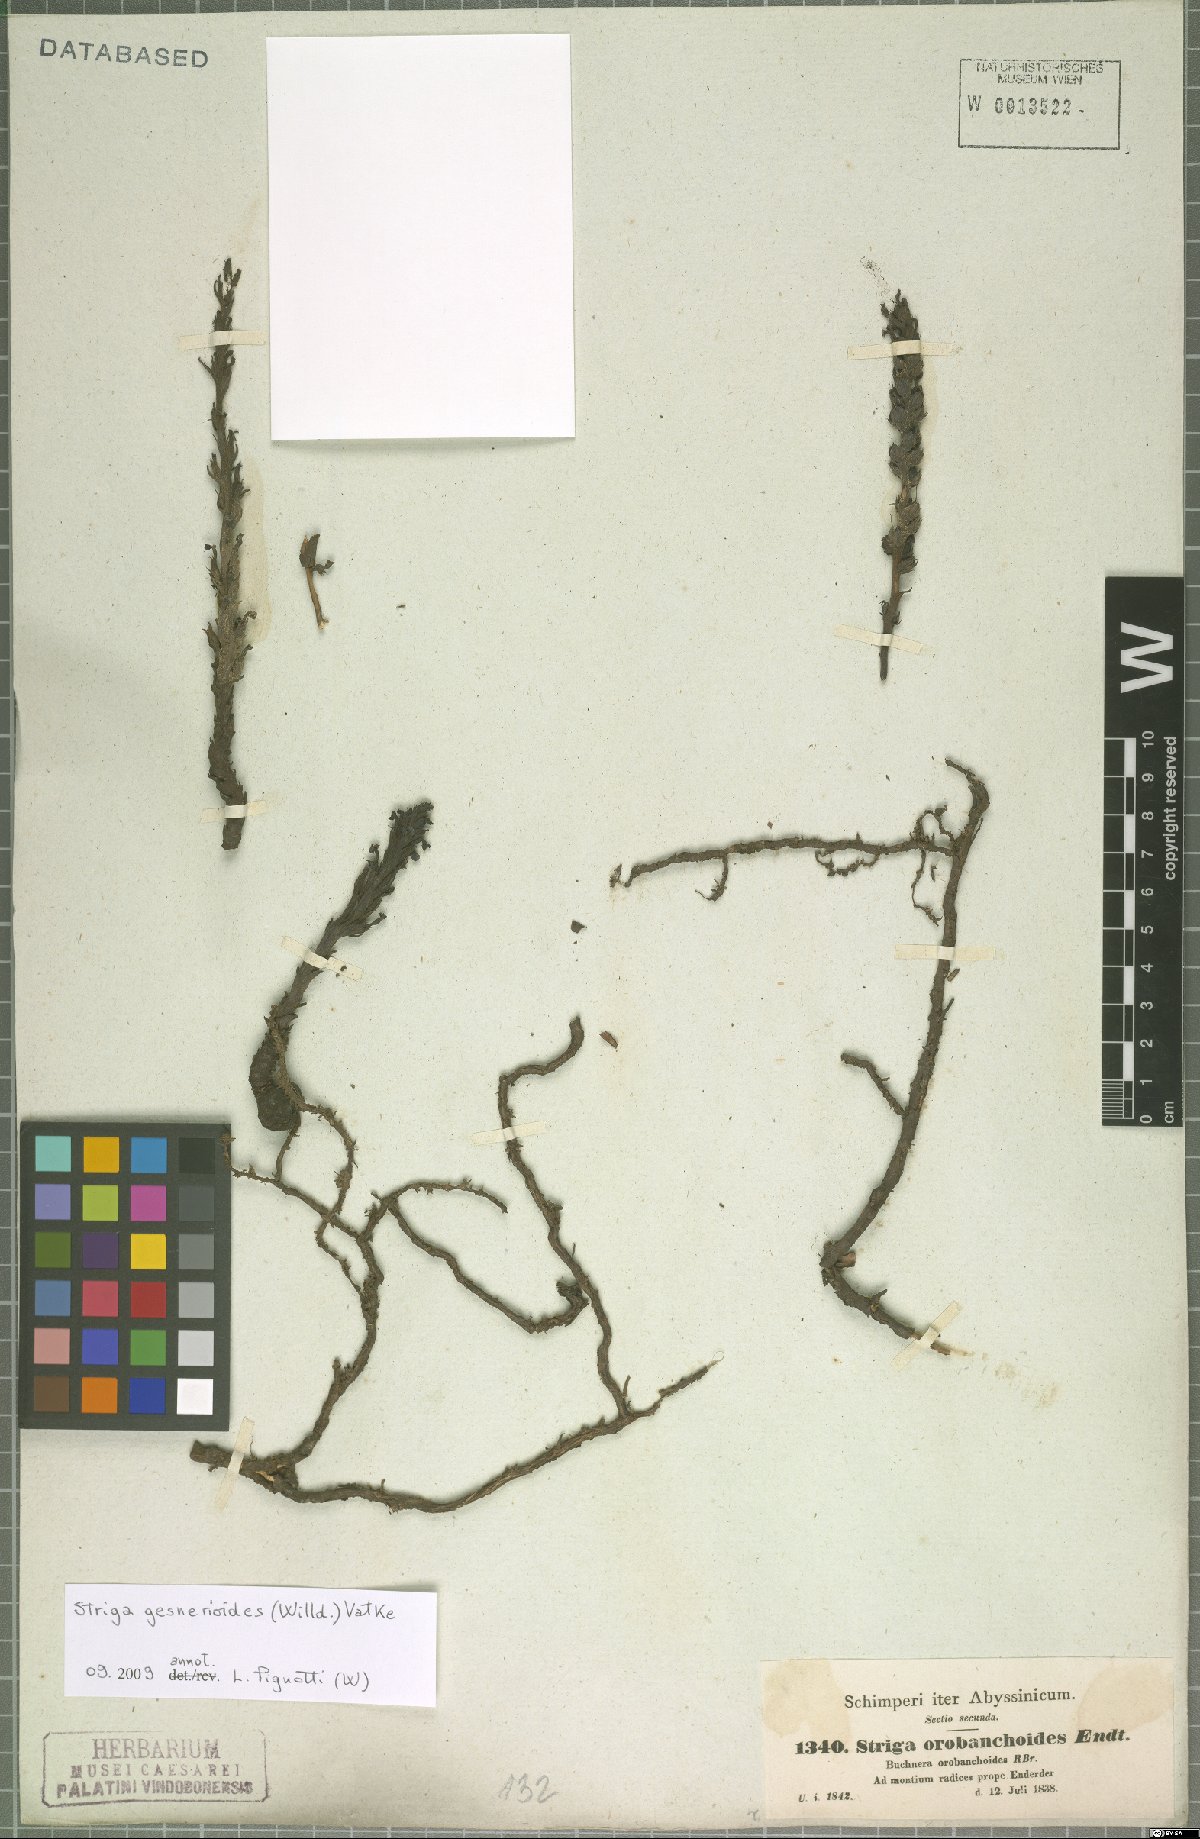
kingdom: Plantae
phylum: Tracheophyta
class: Magnoliopsida
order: Lamiales
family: Orobanchaceae
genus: Striga
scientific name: Striga gesnerioides
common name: Cowpea witchweed
